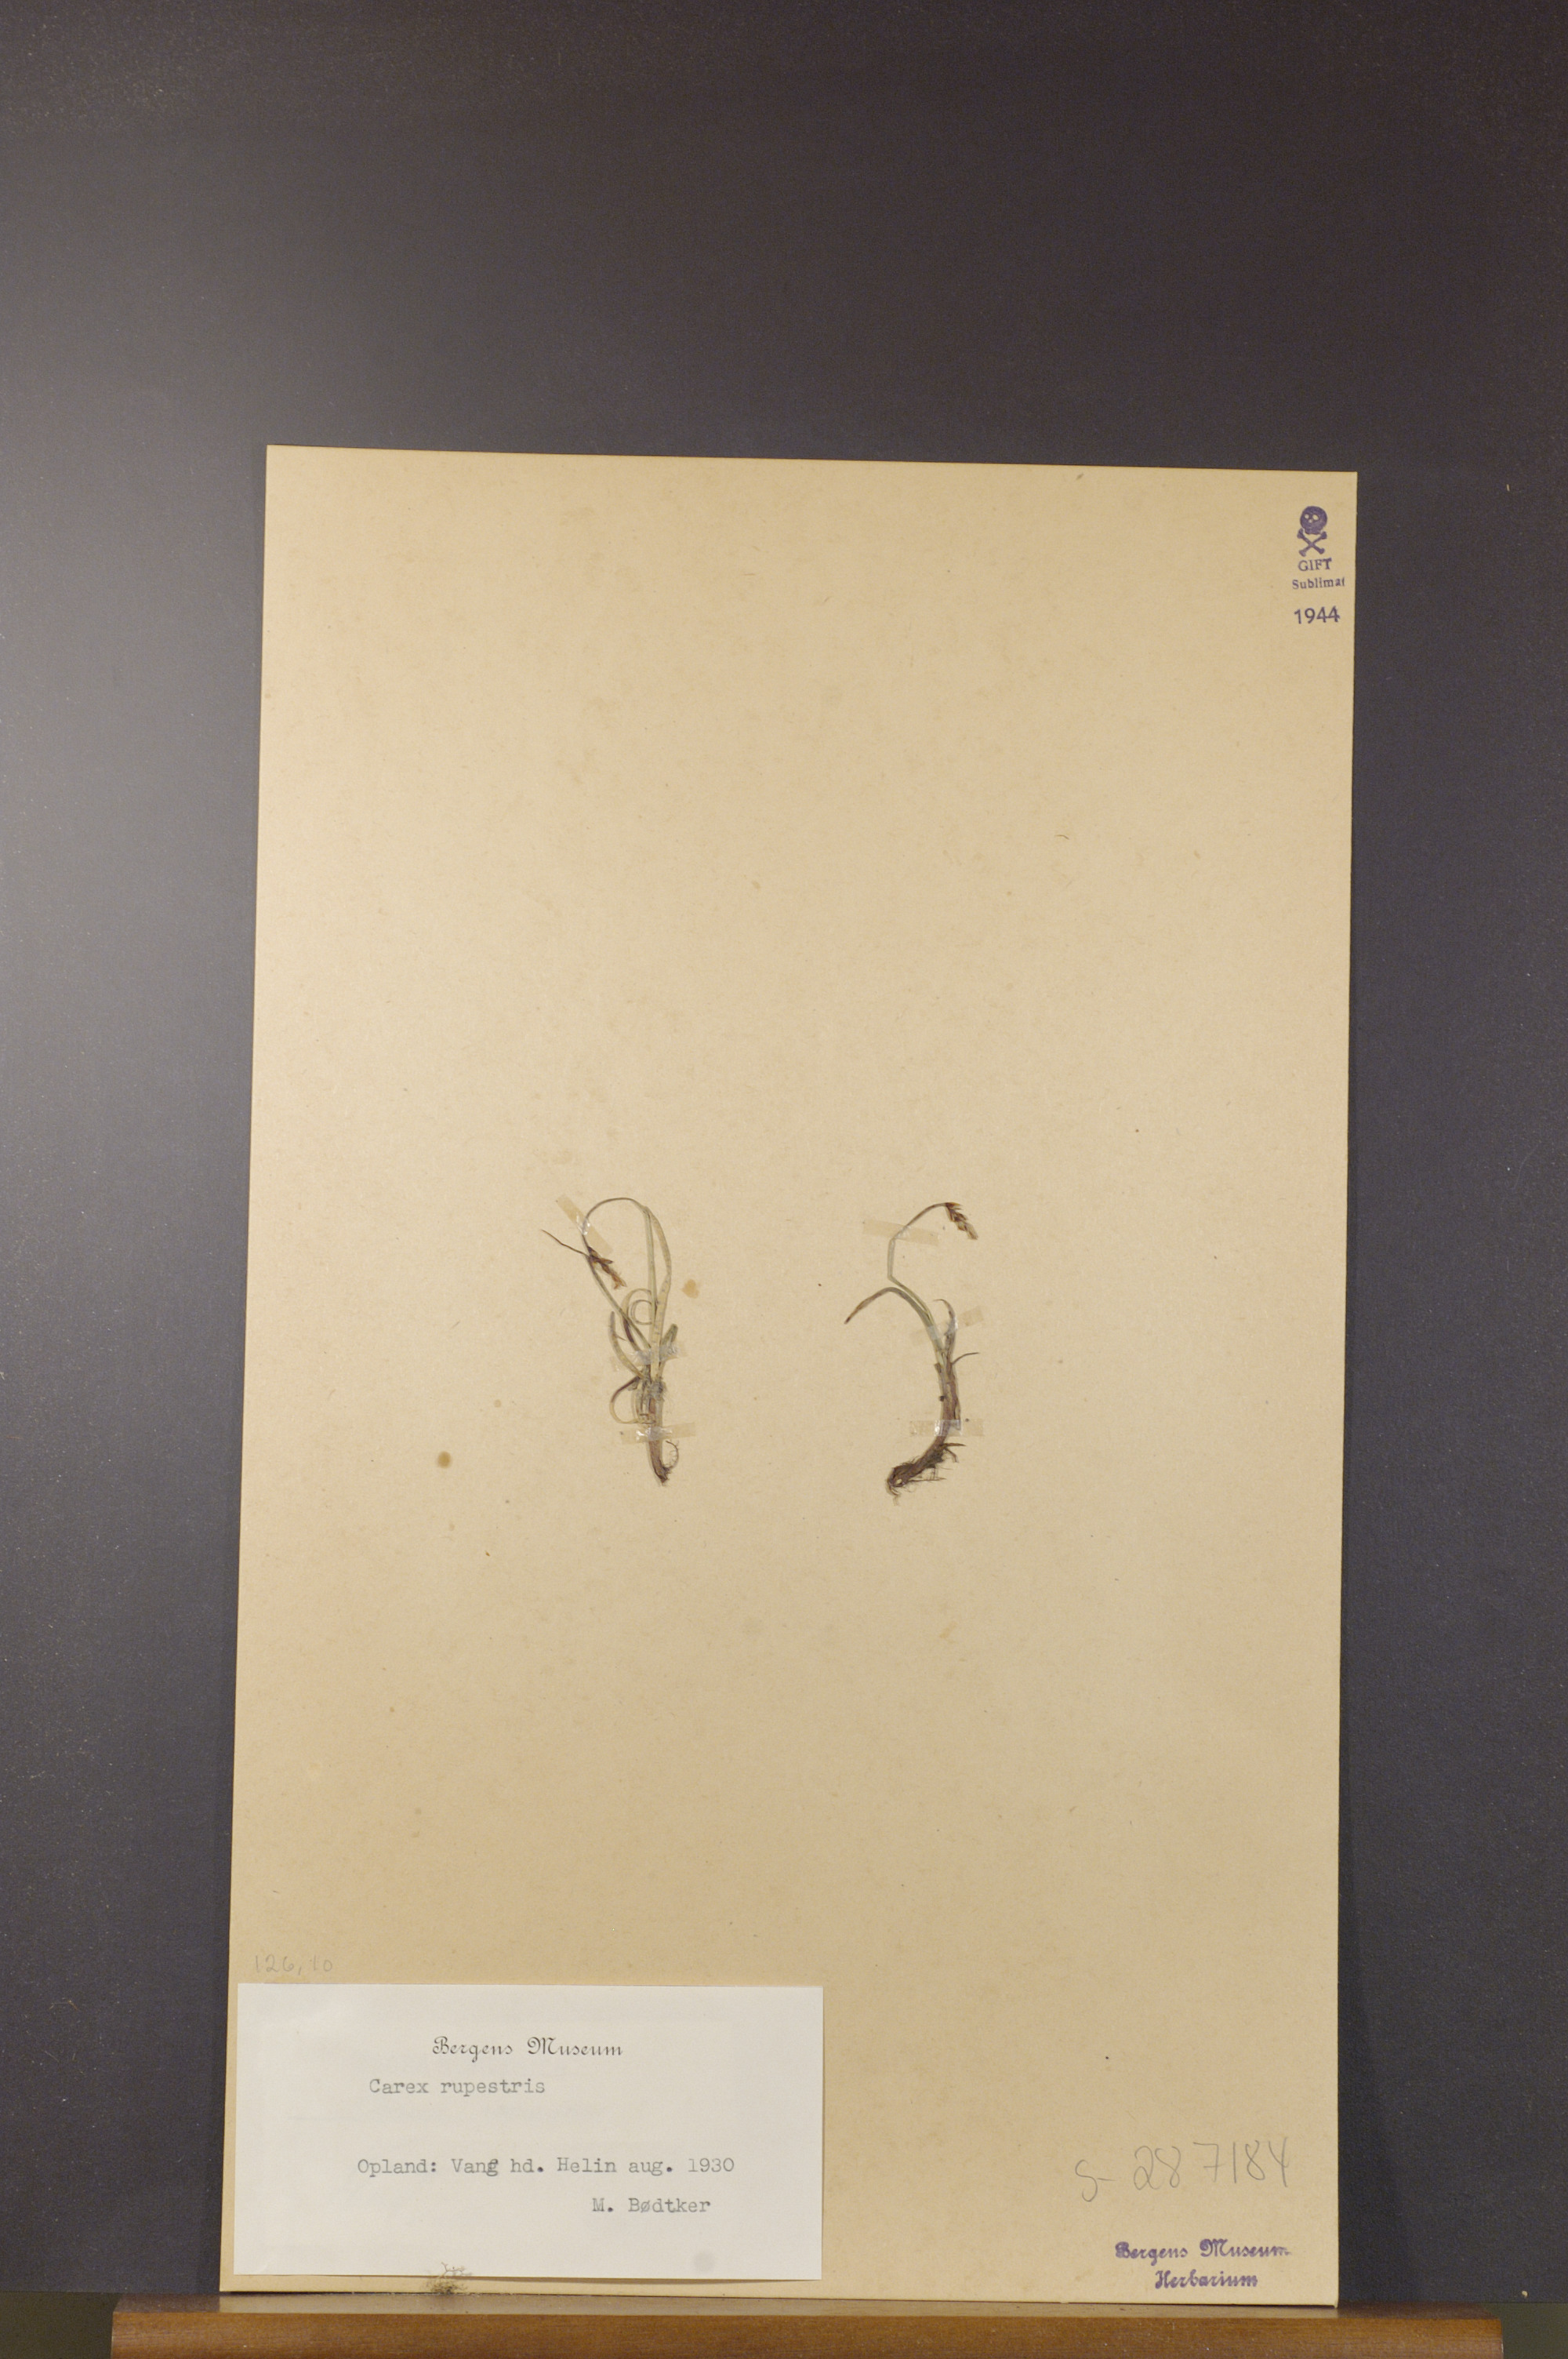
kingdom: Plantae
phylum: Tracheophyta
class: Liliopsida
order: Poales
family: Cyperaceae
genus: Carex
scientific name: Carex rupestris
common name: Rock sedge
